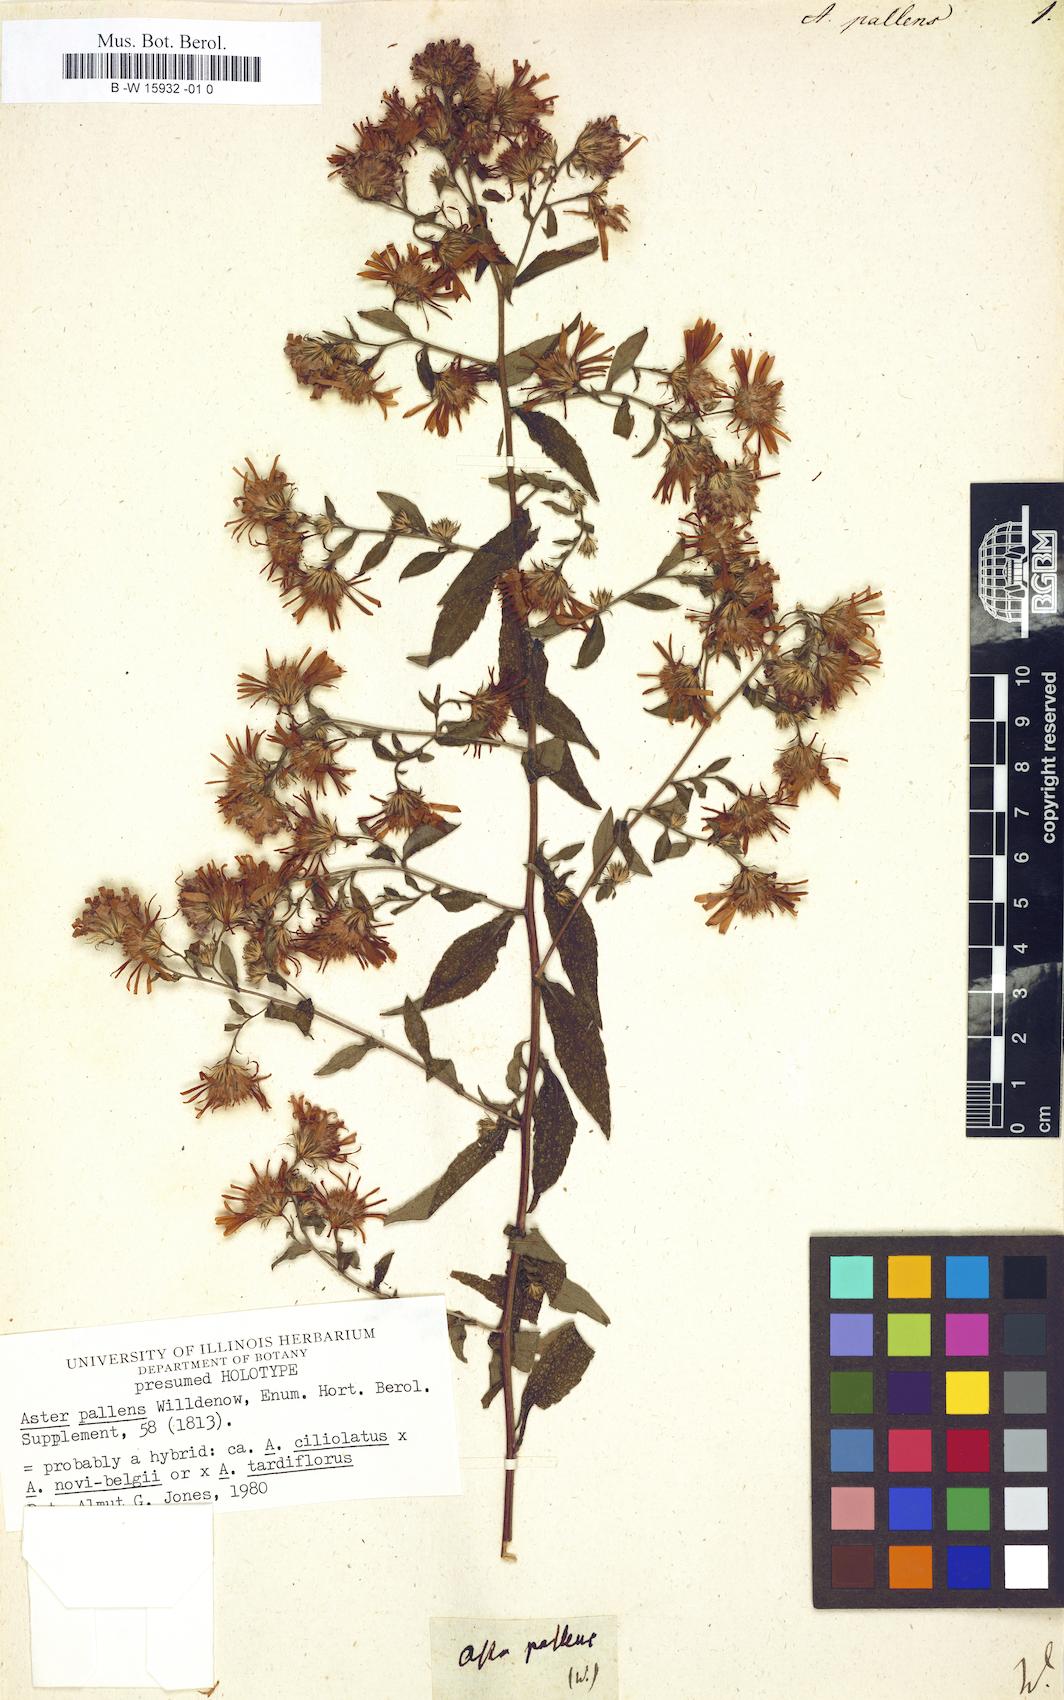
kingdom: Plantae
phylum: Tracheophyta
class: Magnoliopsida
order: Asterales
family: Asteraceae
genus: Symphyotrichum
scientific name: Symphyotrichum lanceolatum
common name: Panicled aster
